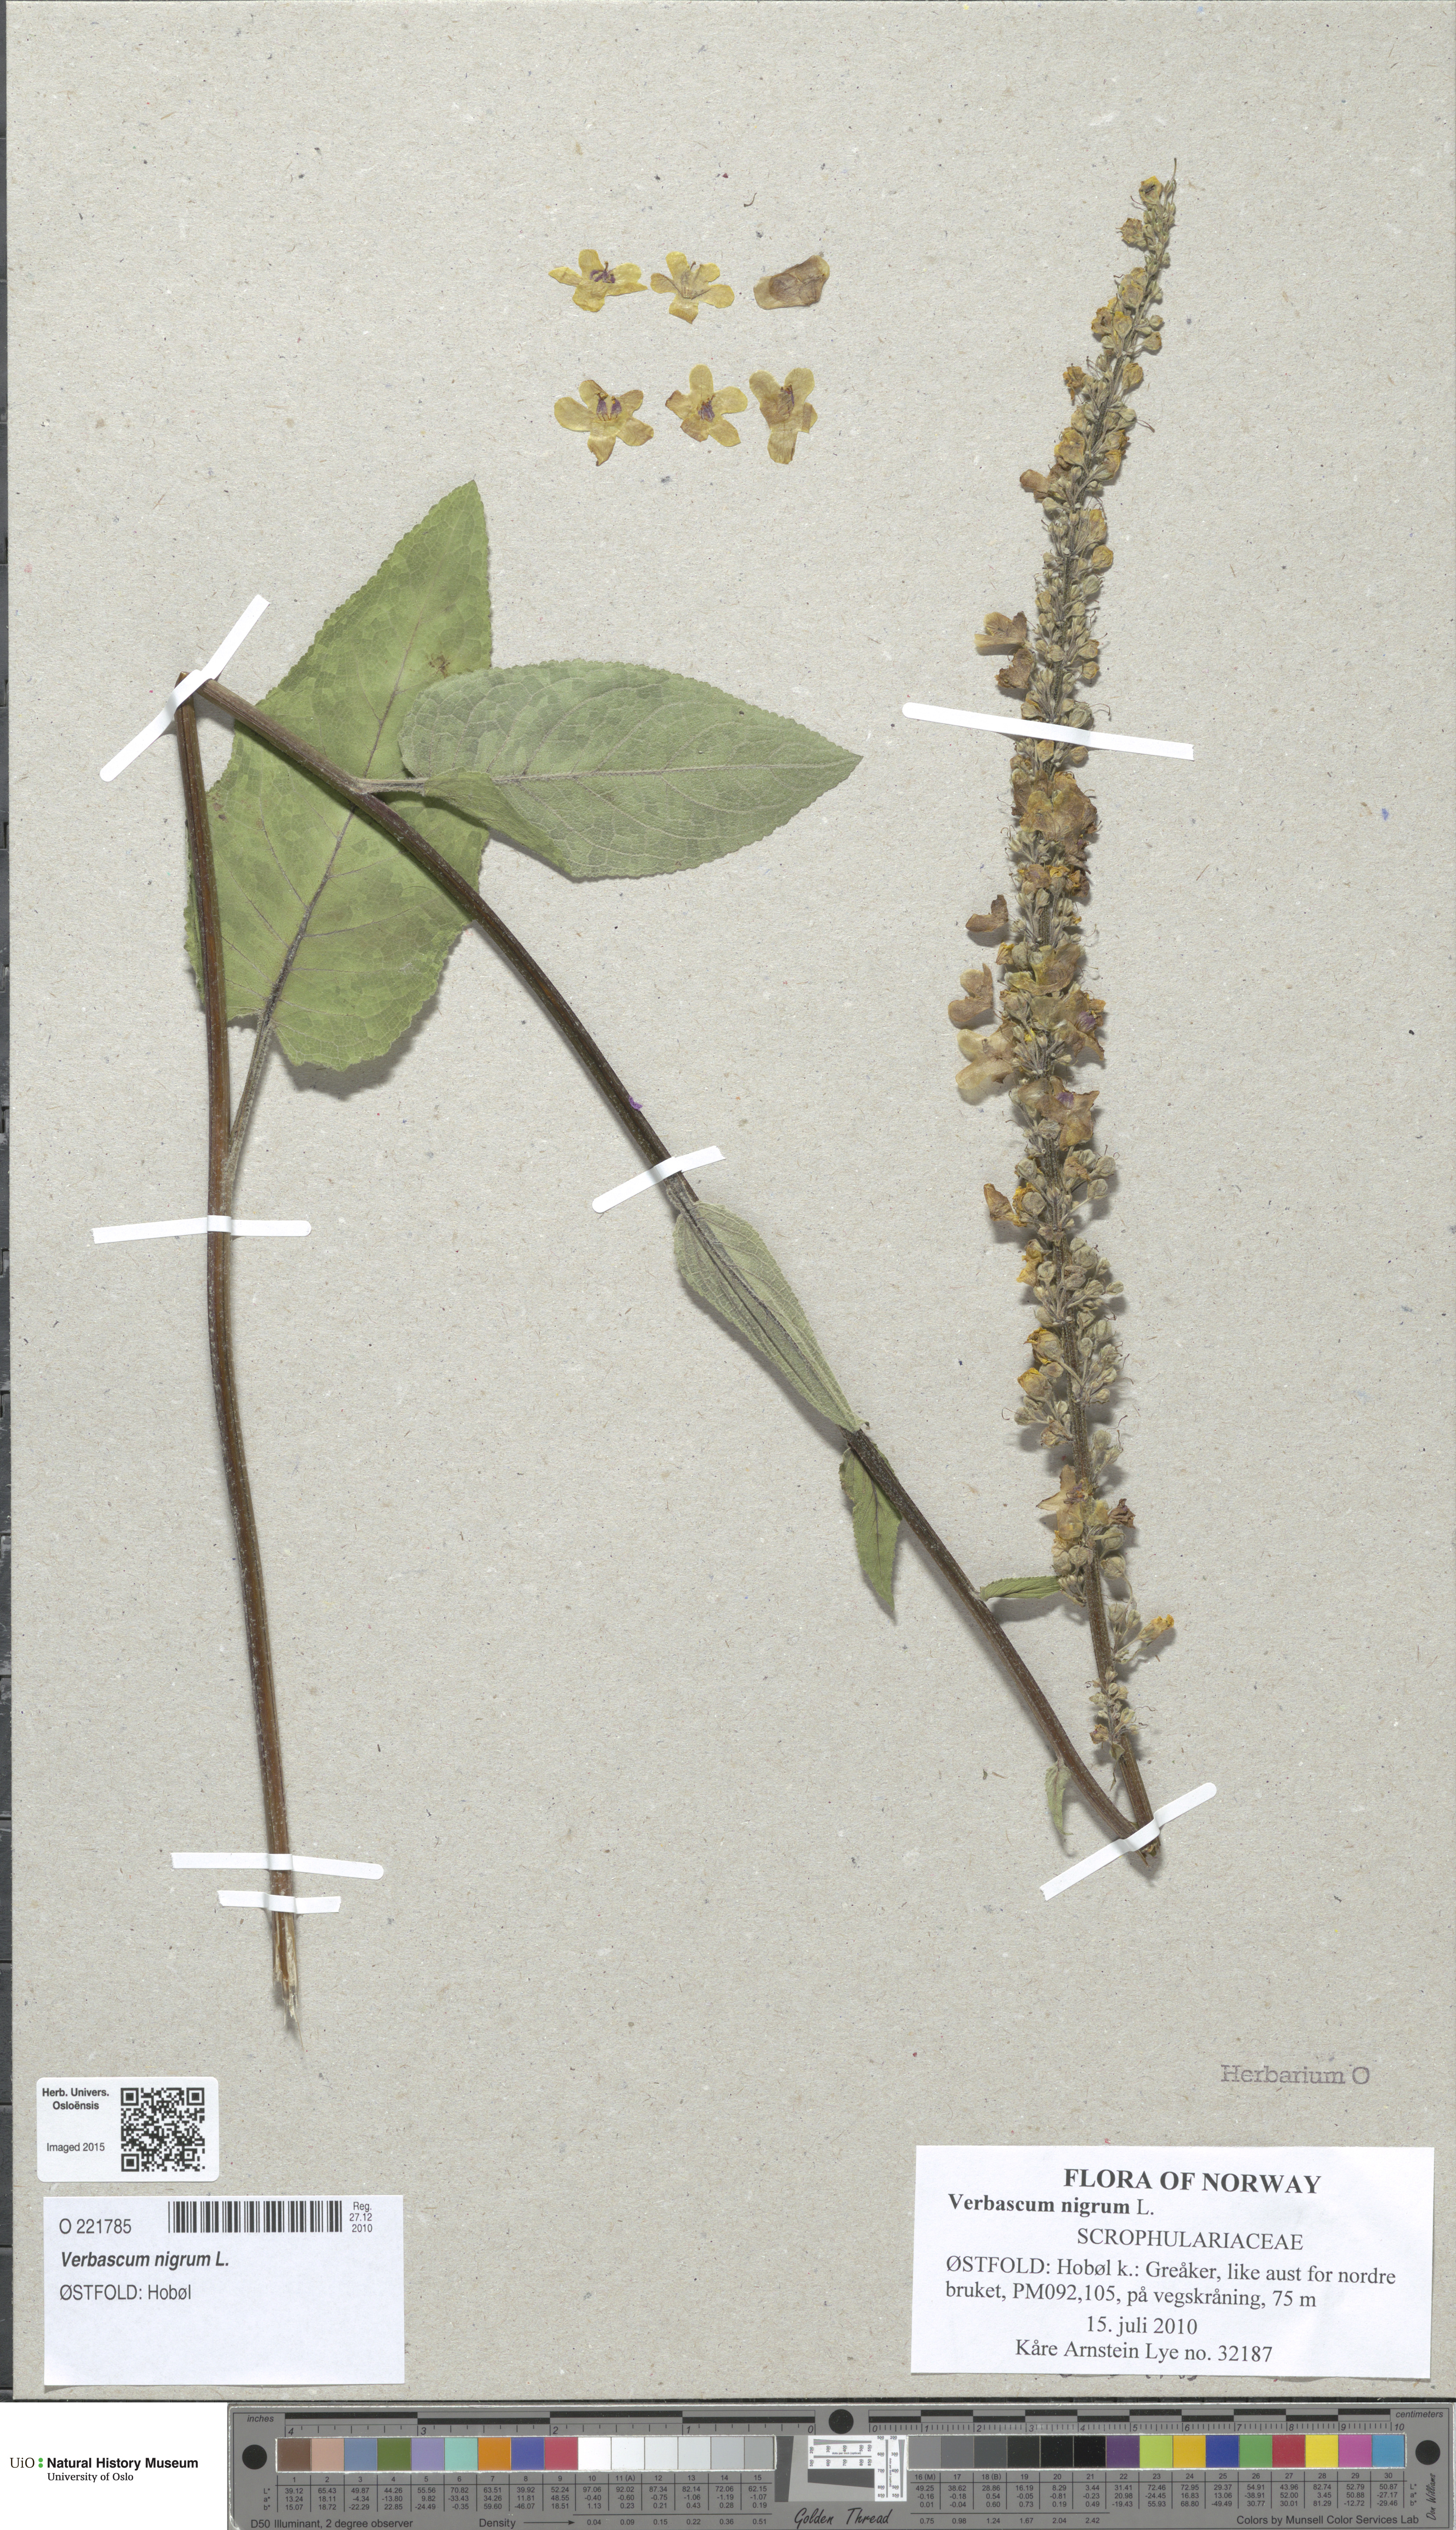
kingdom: Plantae
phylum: Tracheophyta
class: Magnoliopsida
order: Lamiales
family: Scrophulariaceae
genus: Verbascum
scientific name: Verbascum nigrum
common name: Dark mullein
